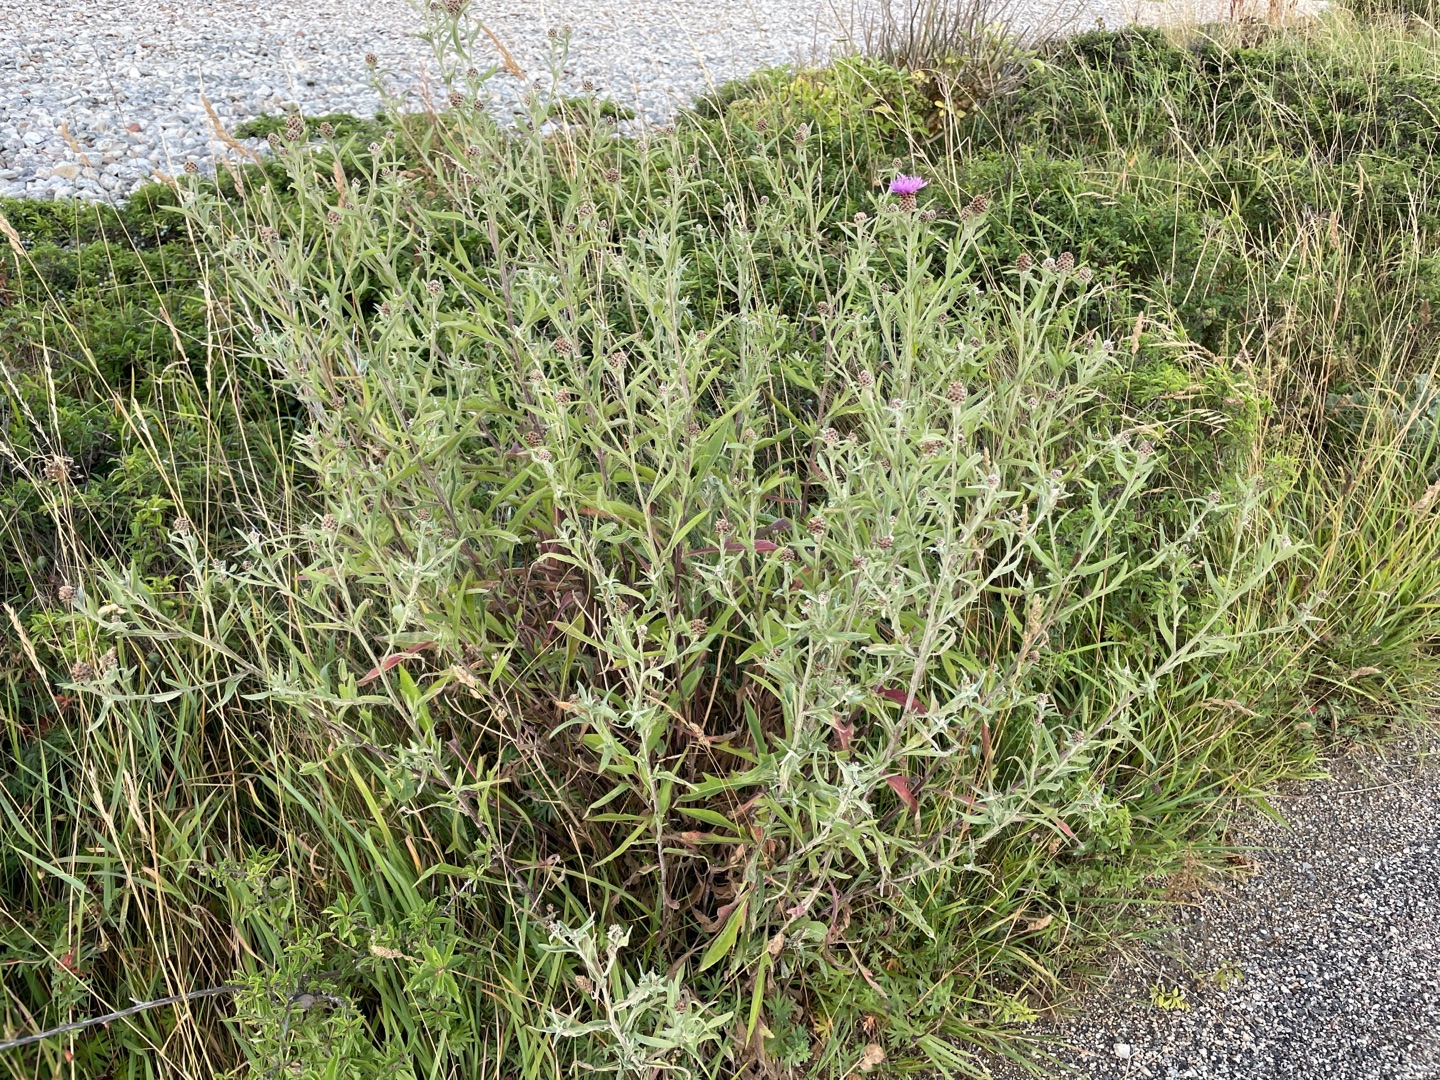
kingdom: Plantae
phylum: Tracheophyta
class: Magnoliopsida
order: Asterales
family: Asteraceae
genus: Centaurea
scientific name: Centaurea jacea
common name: Almindelig knopurt
